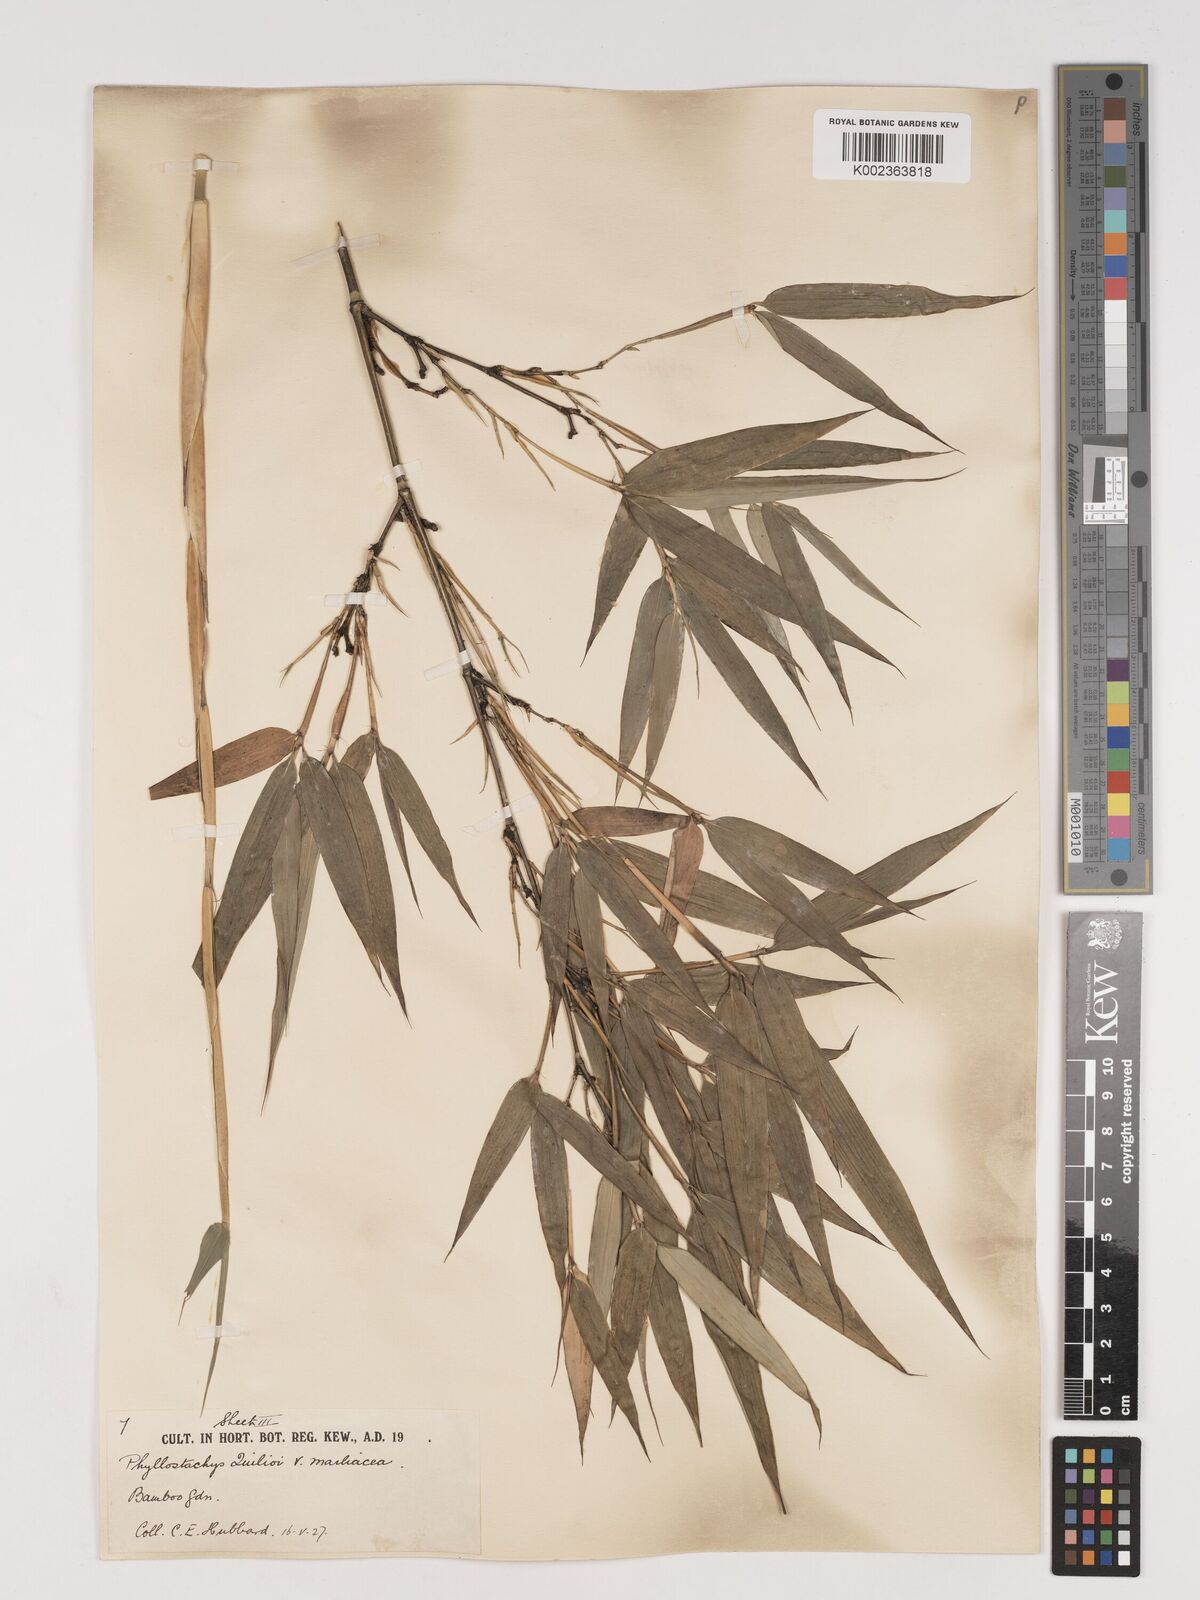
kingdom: Plantae
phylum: Tracheophyta
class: Liliopsida
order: Poales
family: Poaceae
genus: Phyllostachys
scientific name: Phyllostachys reticulata
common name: Bamboo
